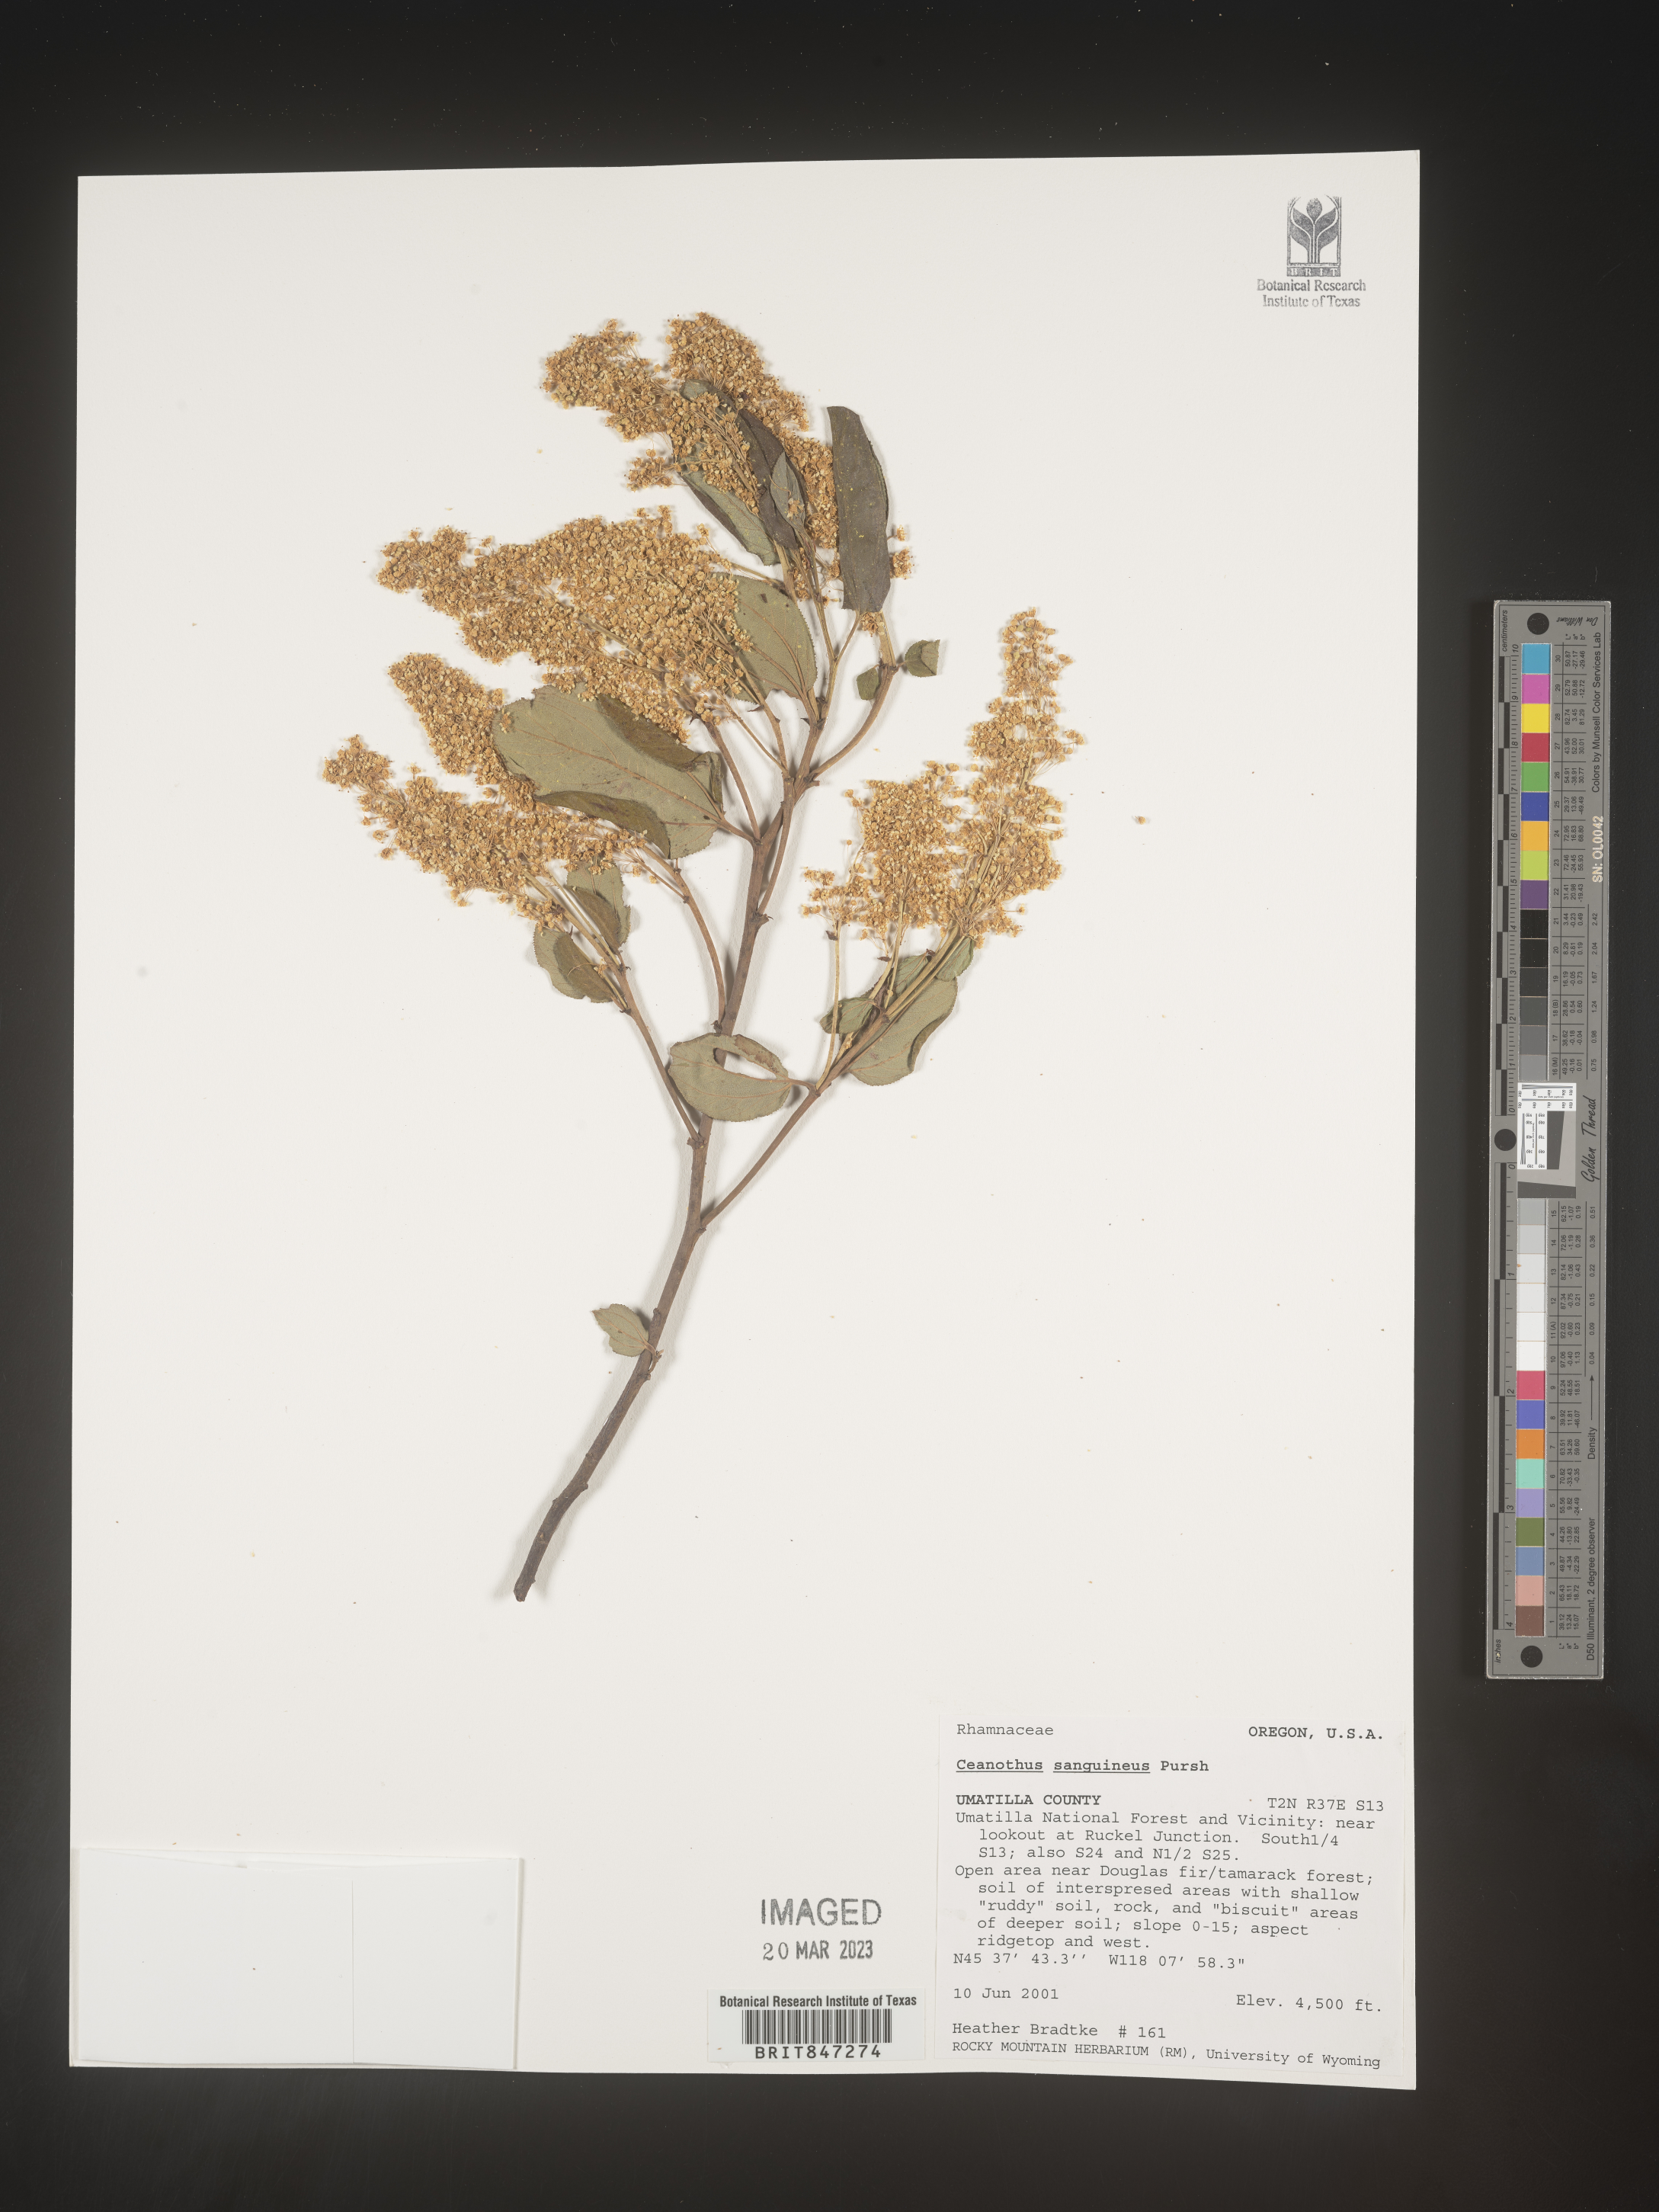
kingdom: Plantae
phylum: Tracheophyta
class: Magnoliopsida
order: Rosales
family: Rhamnaceae
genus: Ceanothus
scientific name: Ceanothus
